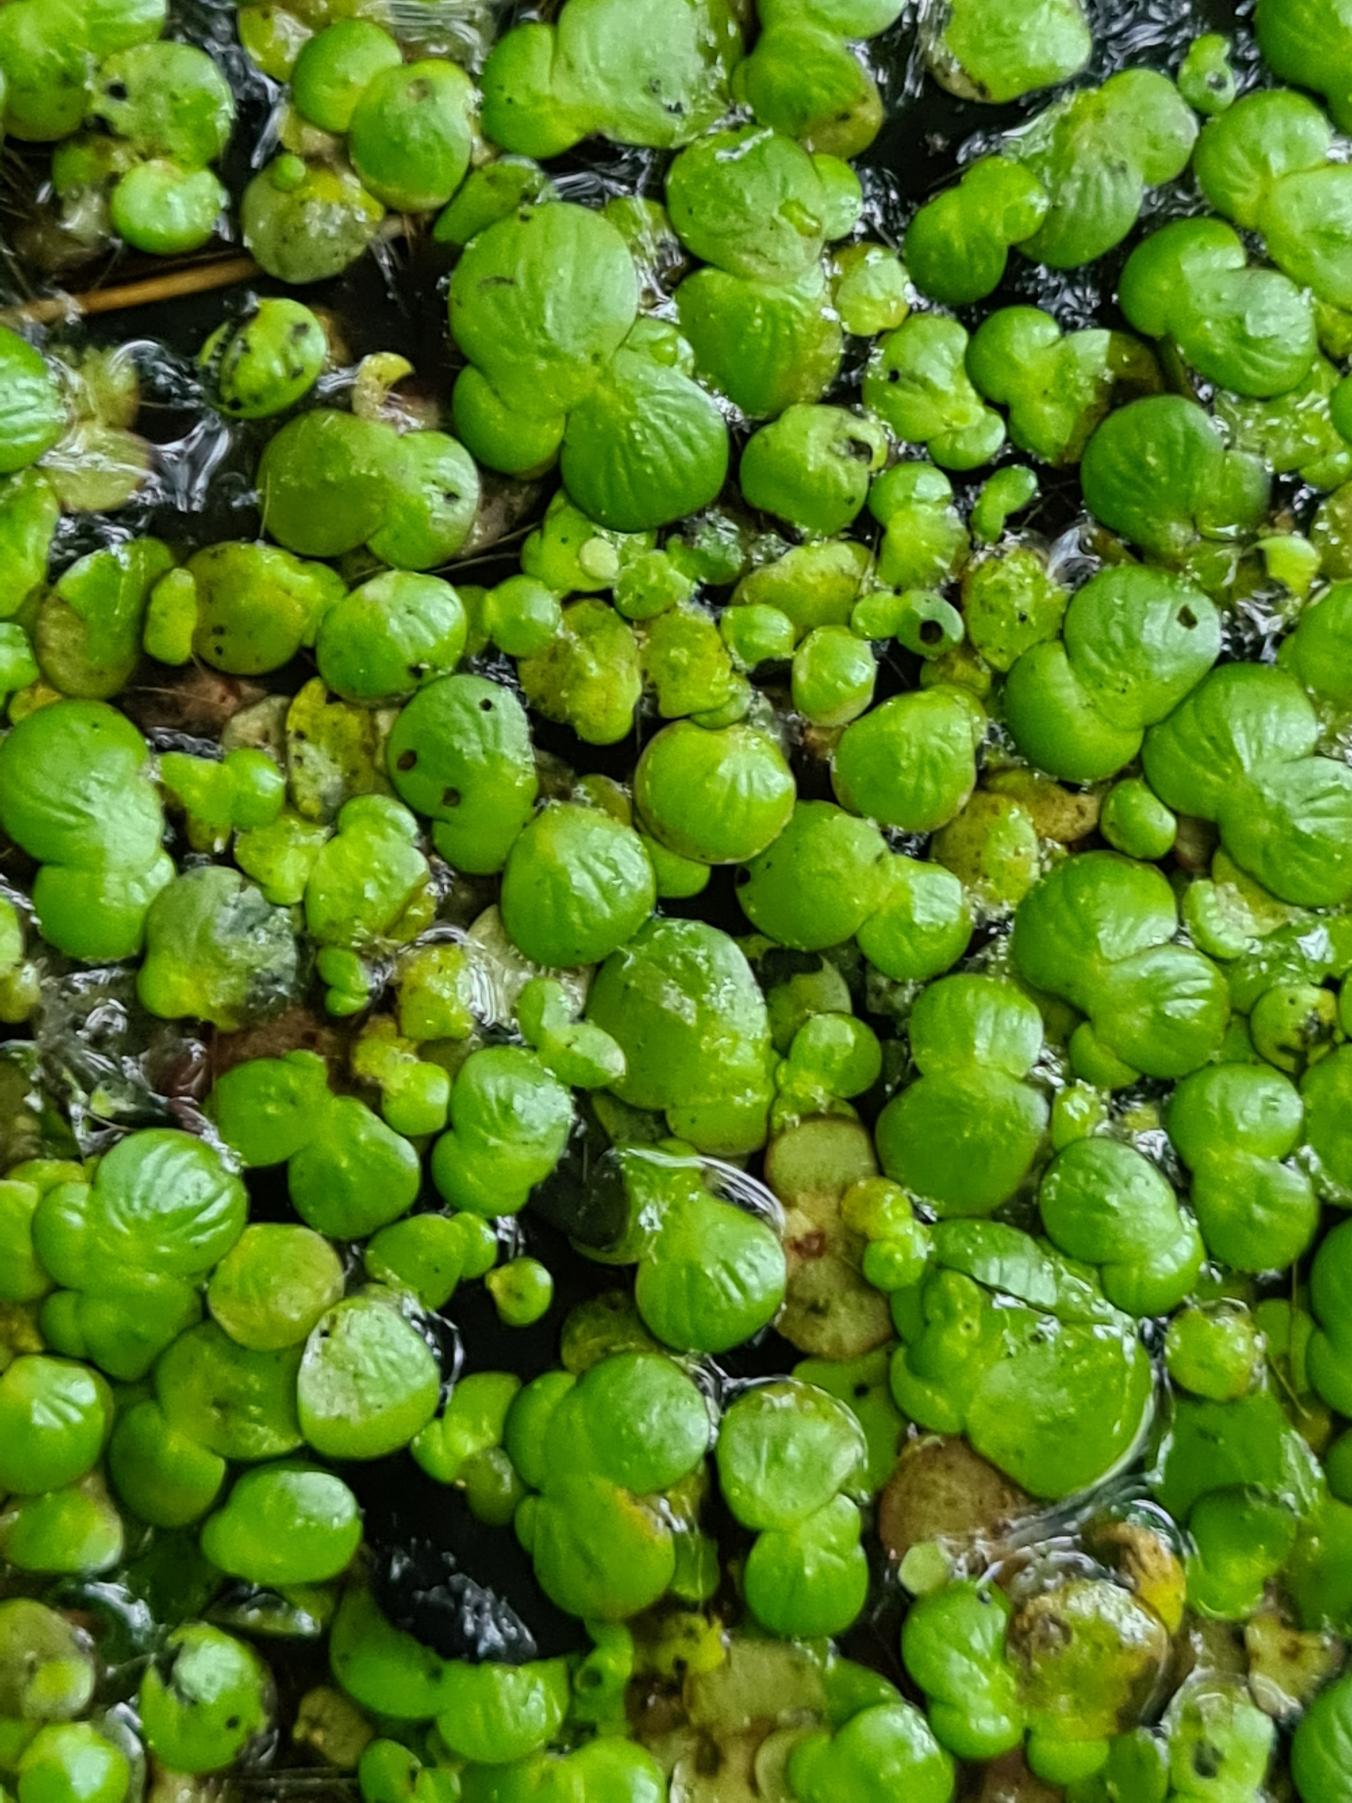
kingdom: Plantae
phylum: Tracheophyta
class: Liliopsida
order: Alismatales
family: Araceae
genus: Spirodela
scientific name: Spirodela polyrhiza
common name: Stor andemad
